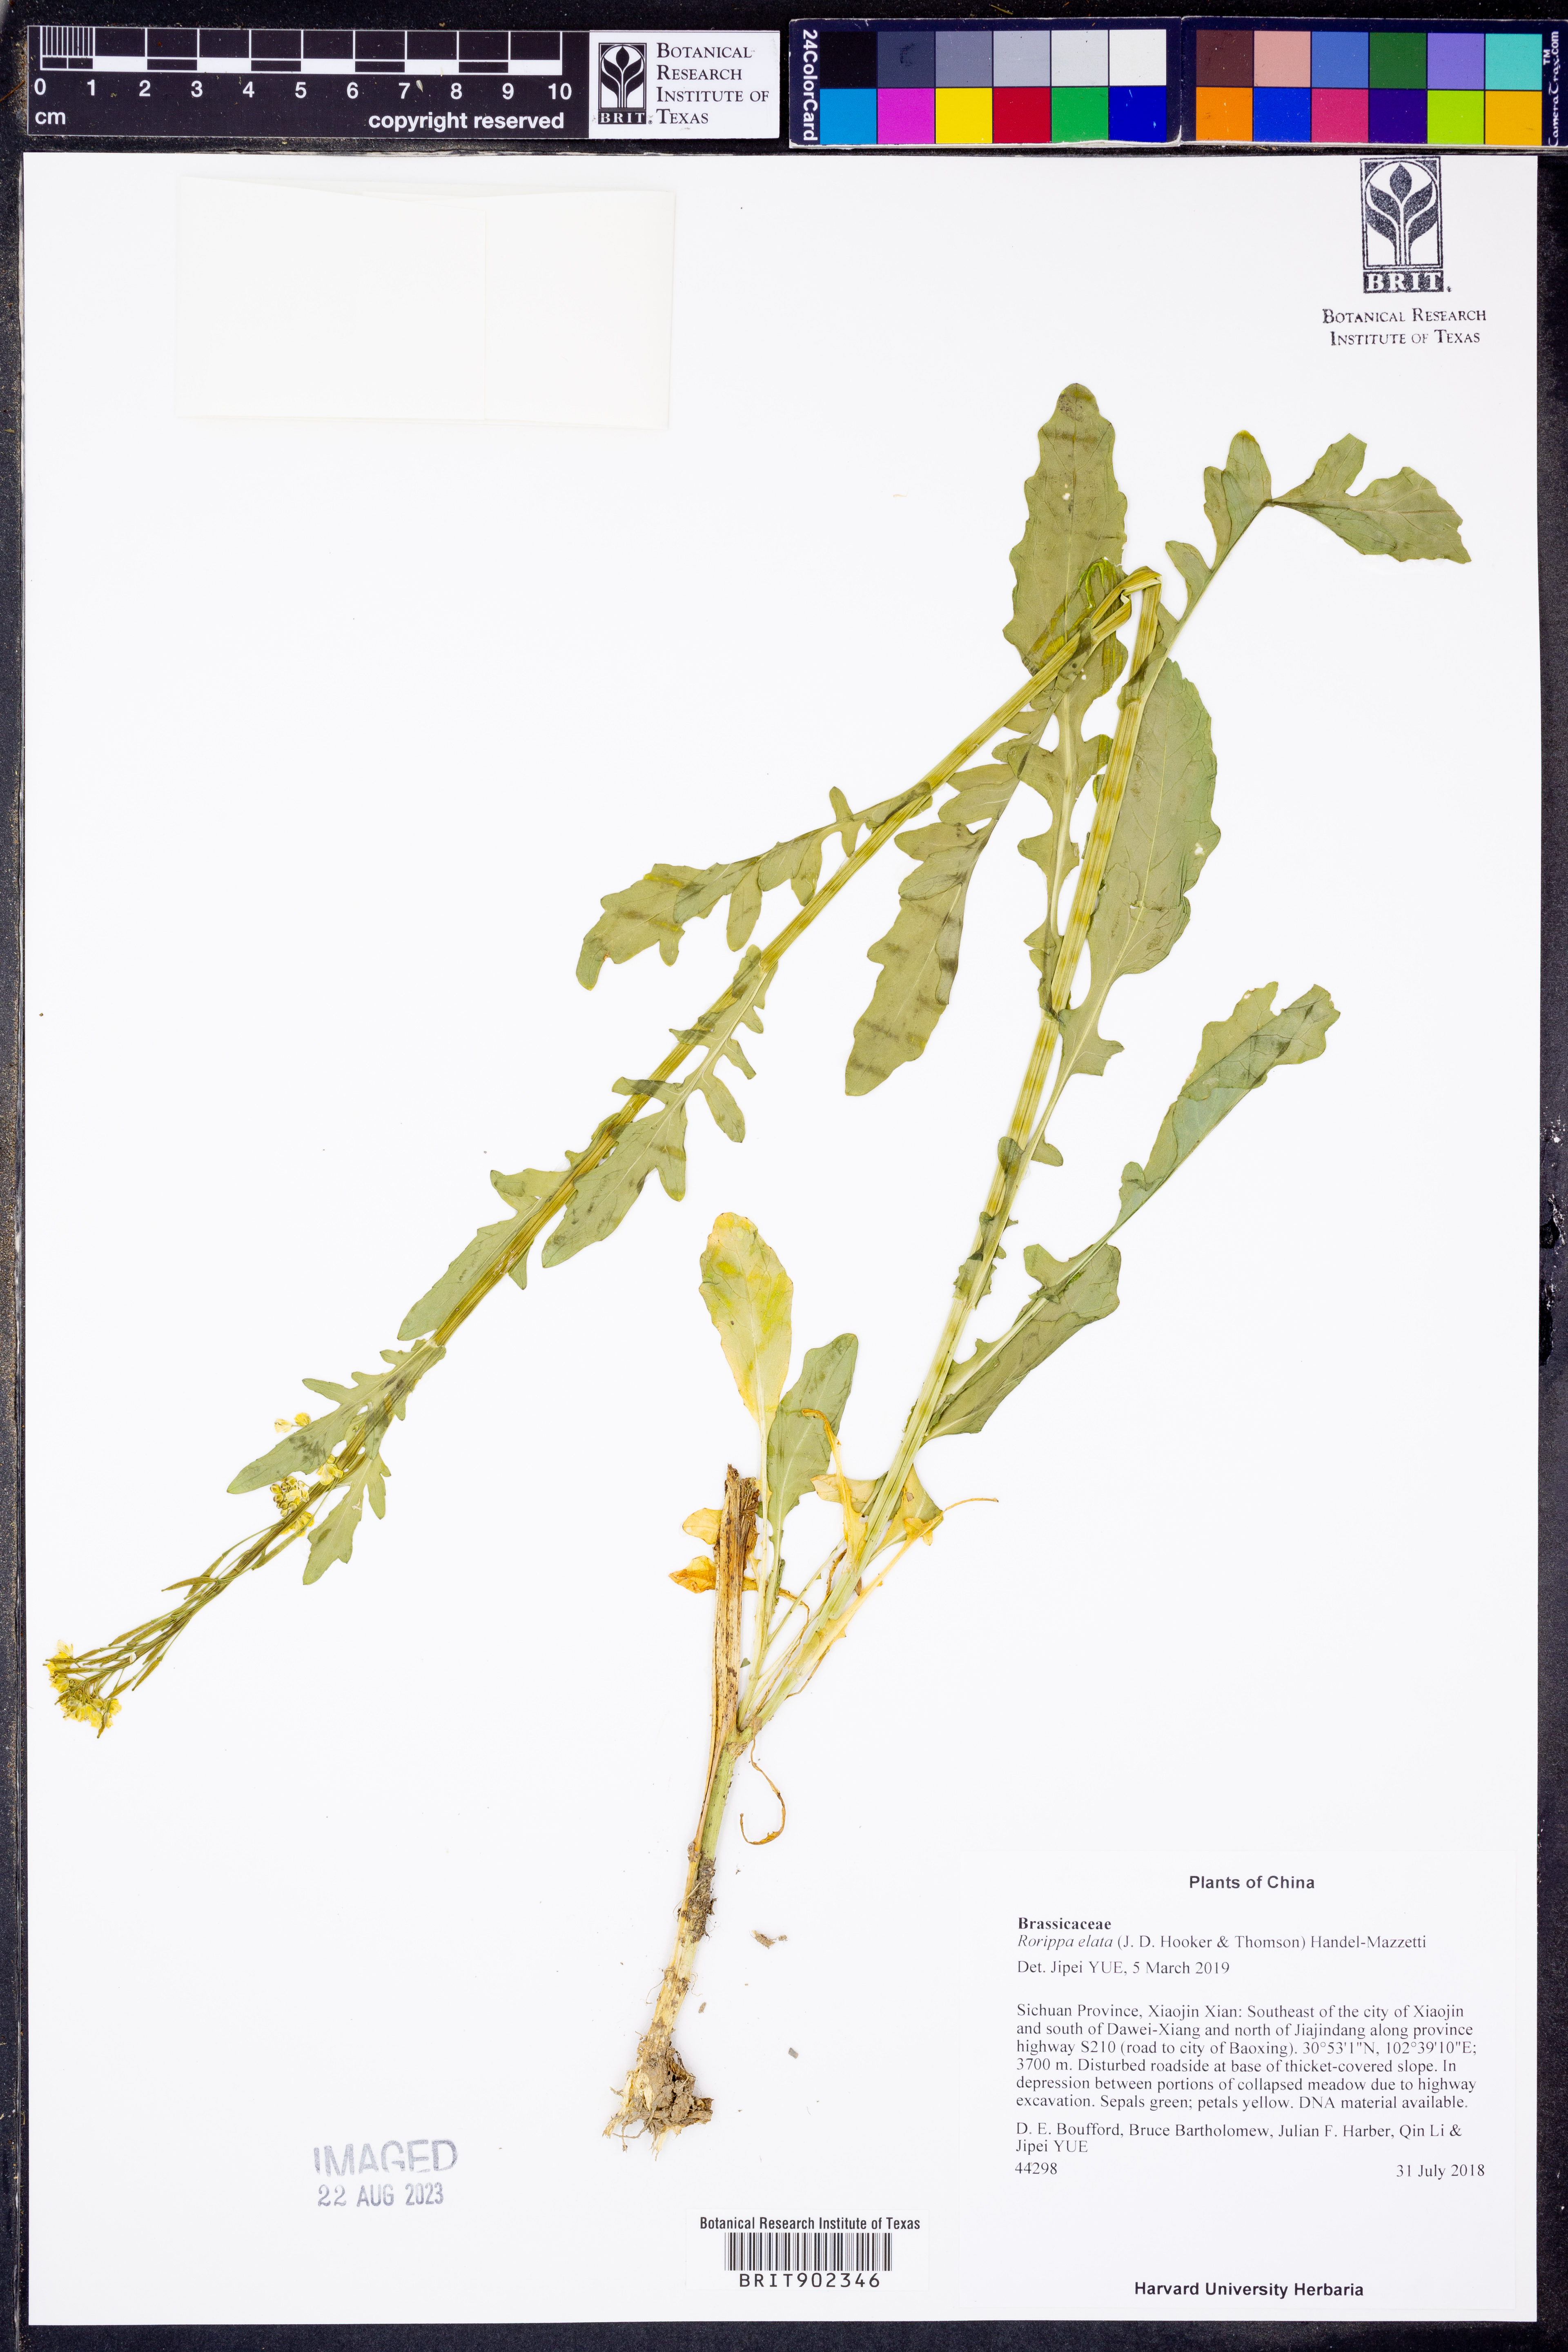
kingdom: Plantae
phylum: Tracheophyta
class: Magnoliopsida
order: Brassicales
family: Brassicaceae
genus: Rorippa
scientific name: Rorippa
